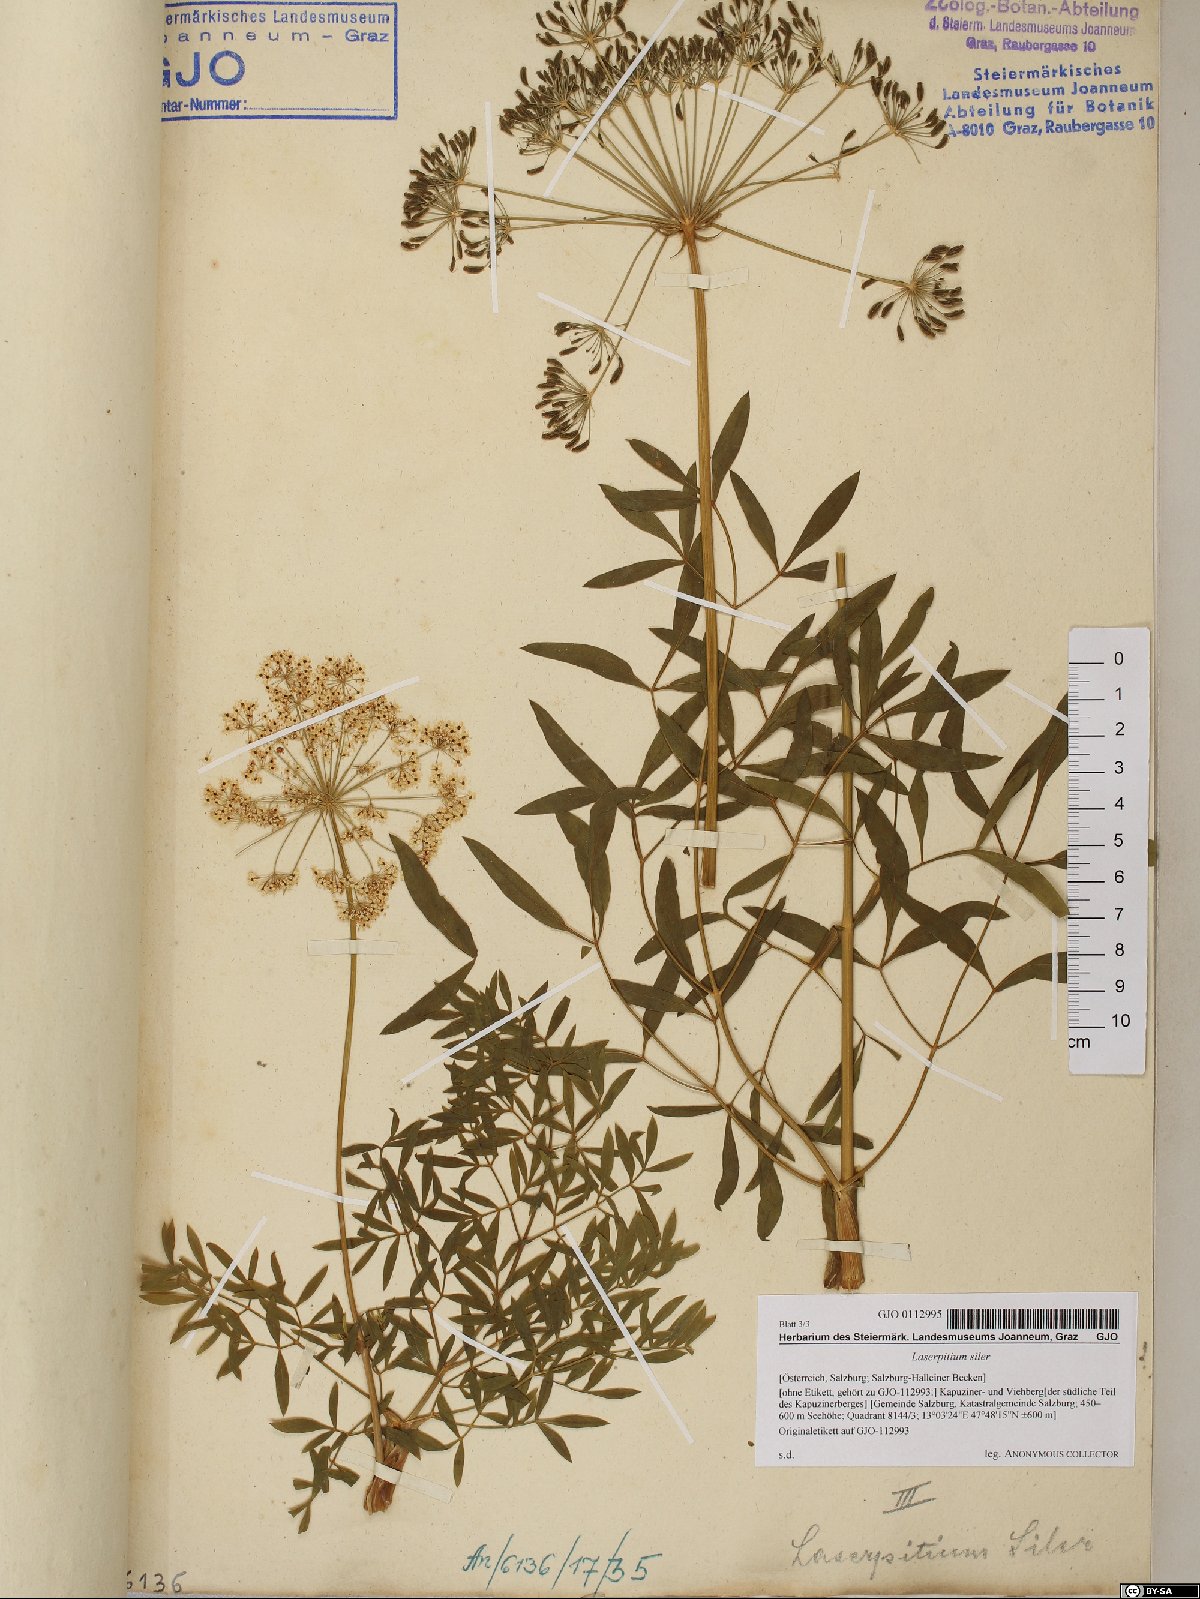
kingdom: Plantae
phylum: Tracheophyta
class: Magnoliopsida
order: Apiales
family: Apiaceae
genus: Siler
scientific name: Siler montanum
